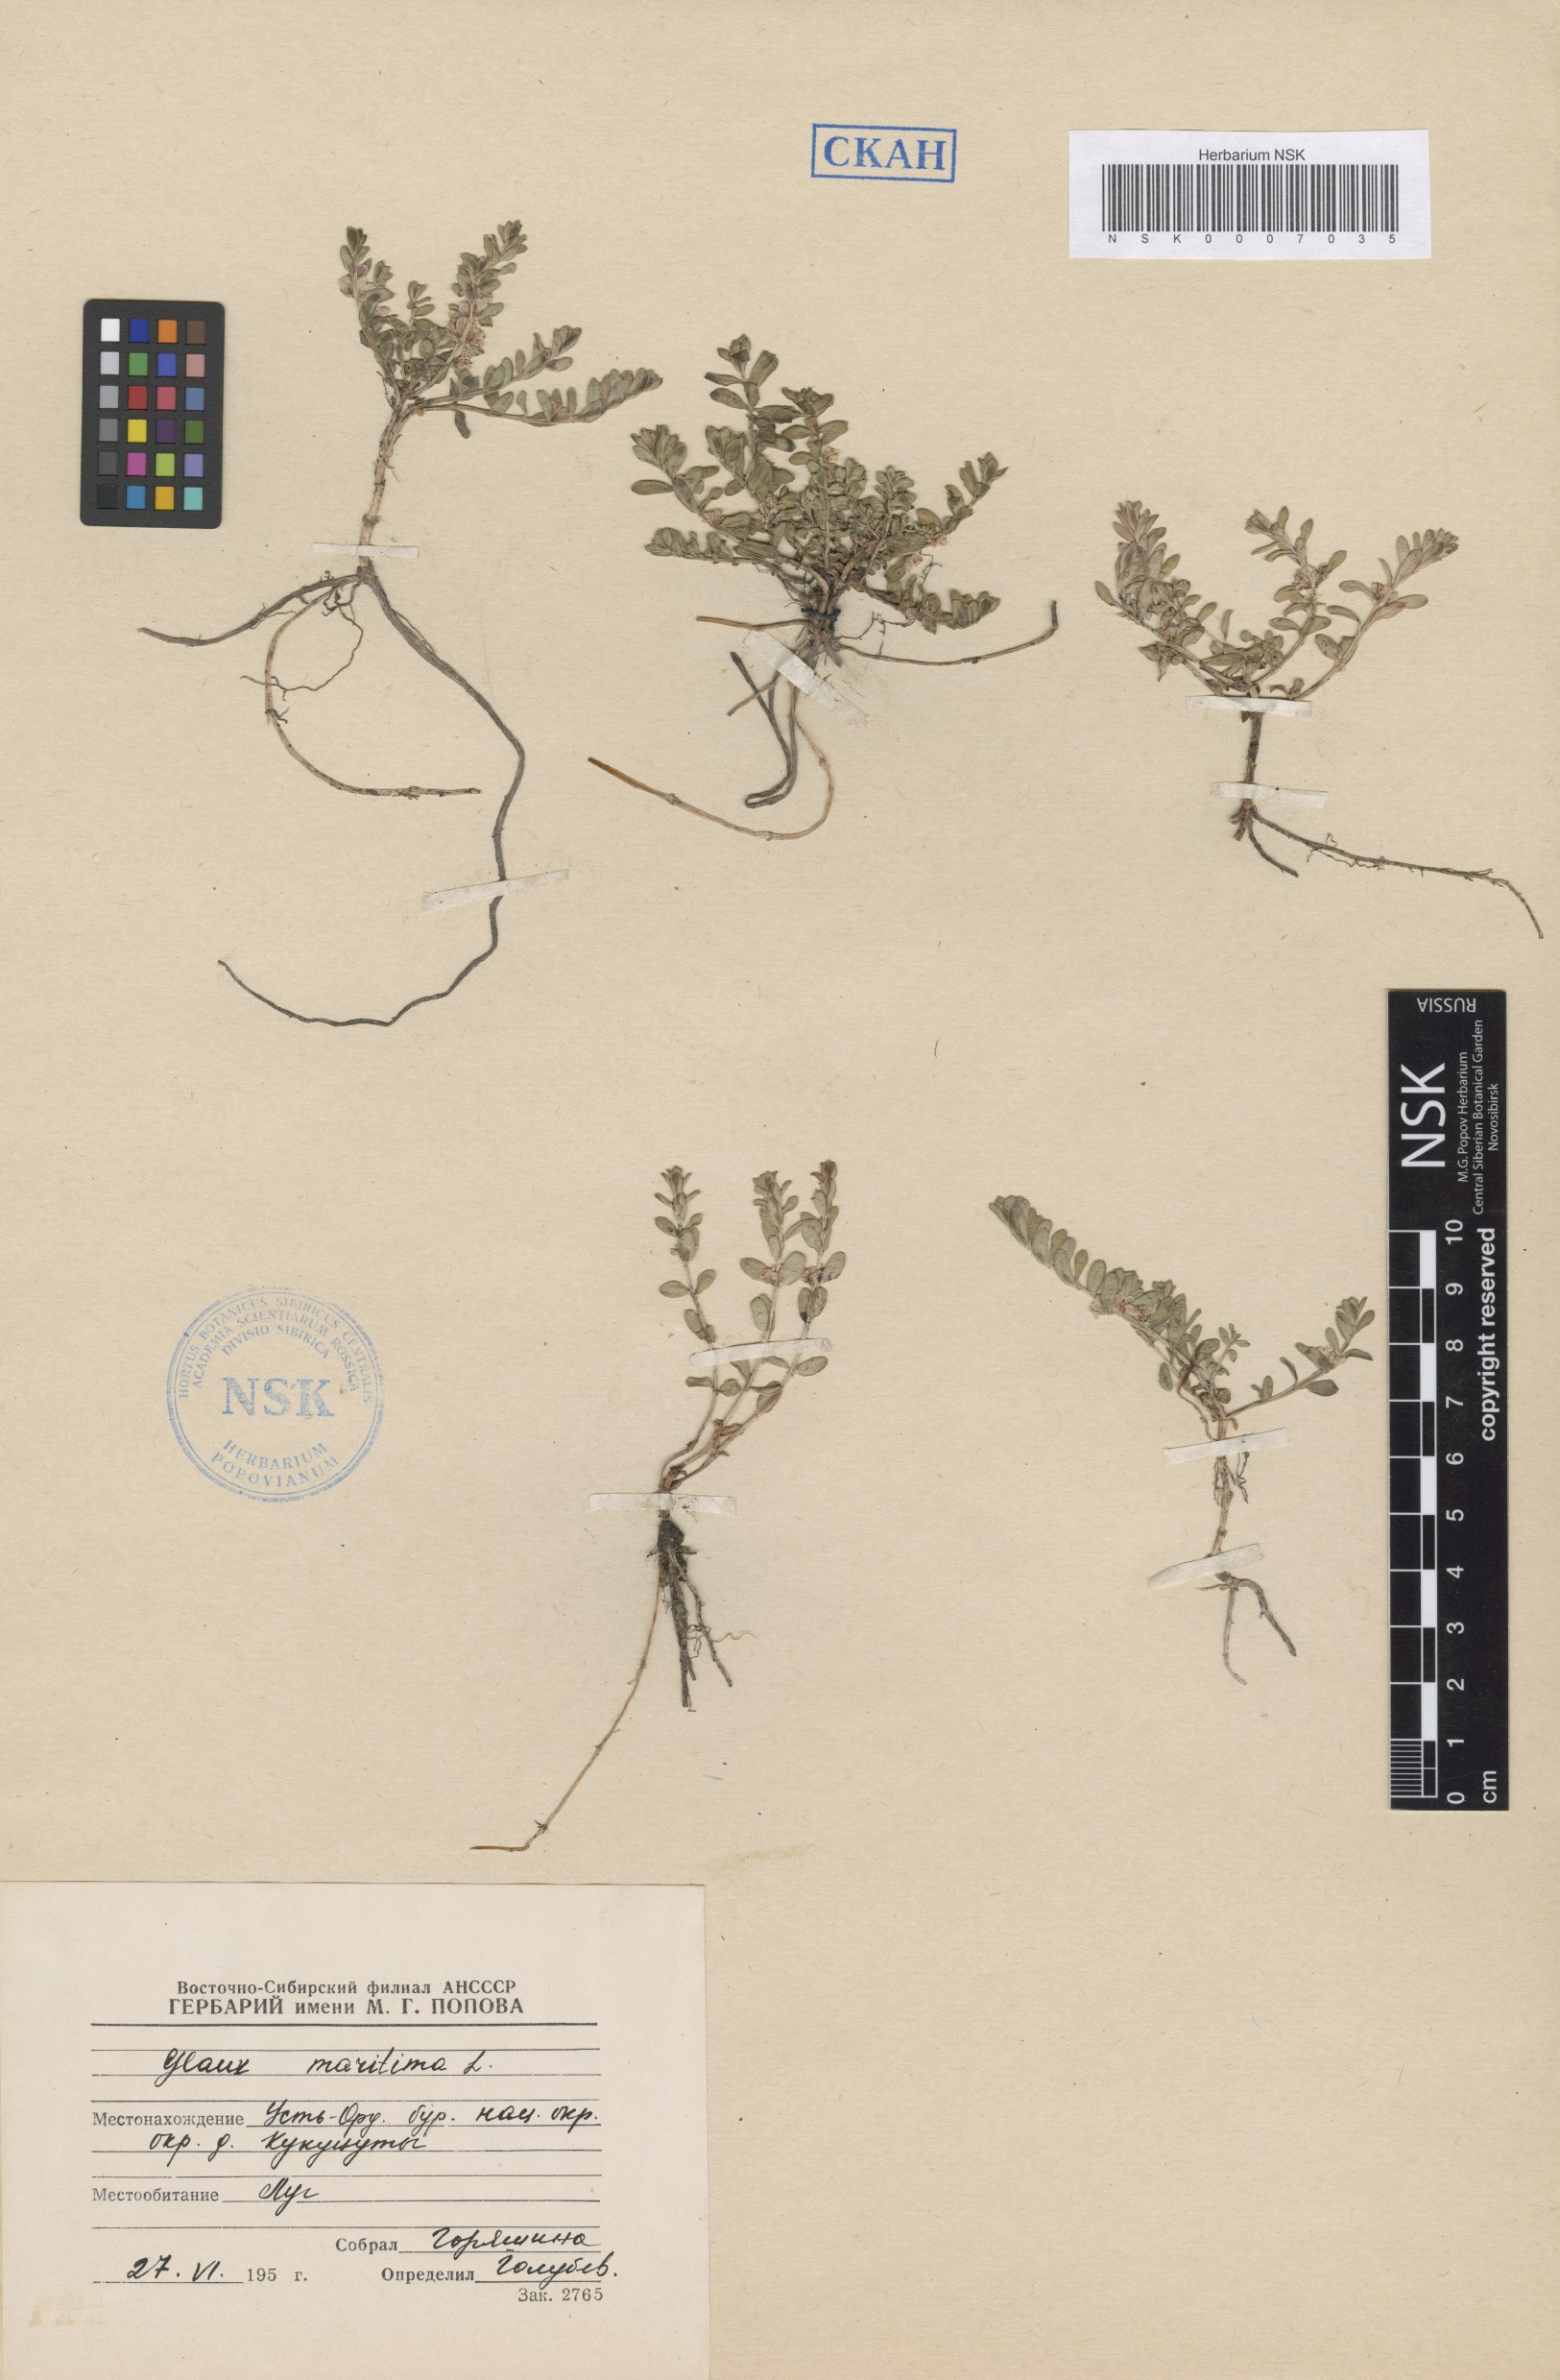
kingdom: Plantae
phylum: Tracheophyta
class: Magnoliopsida
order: Ericales
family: Primulaceae
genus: Lysimachia
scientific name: Lysimachia maritima
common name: Sea milkwort
